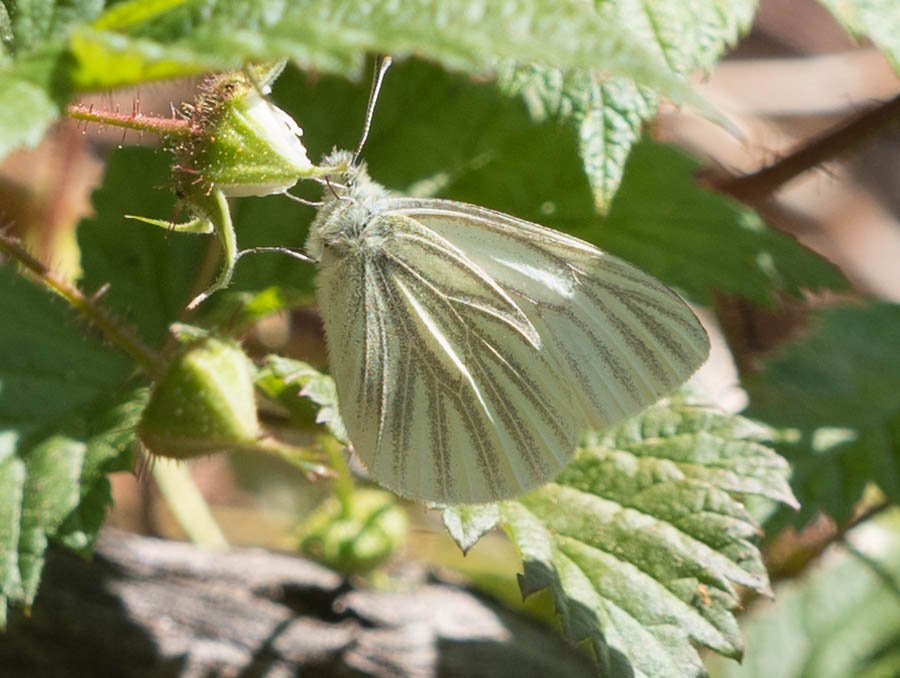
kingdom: Animalia
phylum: Arthropoda
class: Insecta
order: Lepidoptera
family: Pieridae
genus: Pieris
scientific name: Pieris marginalis
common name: Margined White
